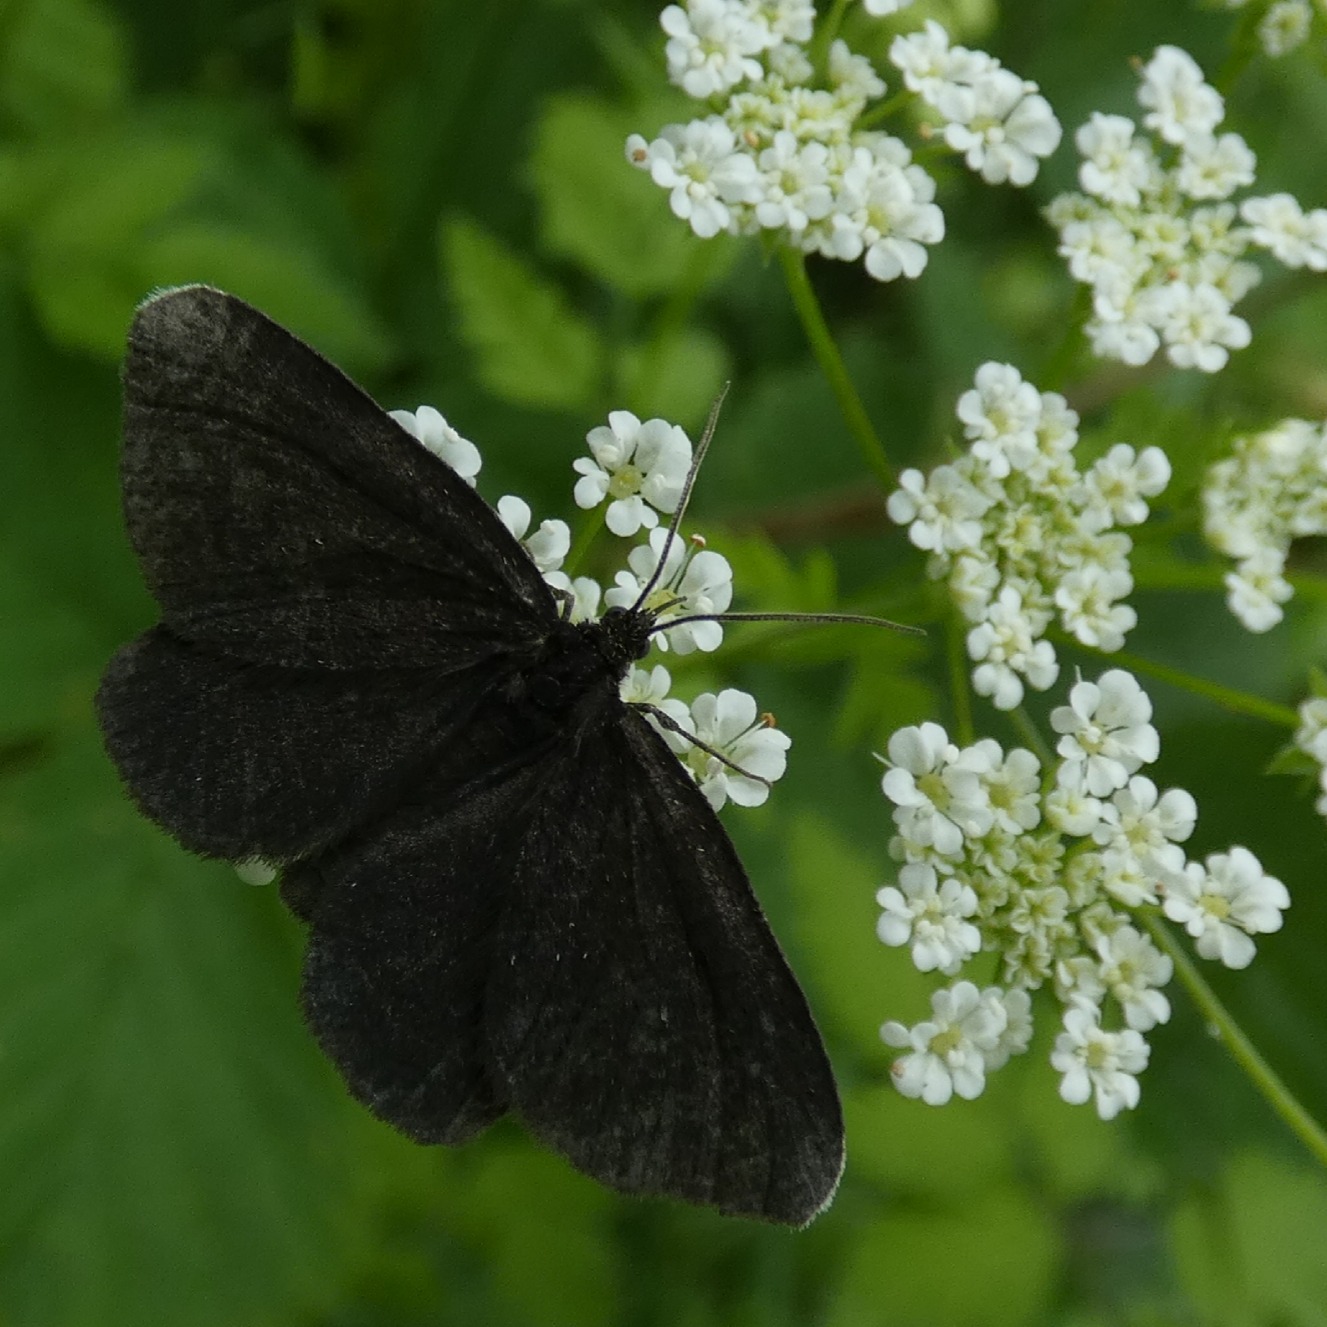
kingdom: Animalia
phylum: Arthropoda
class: Insecta
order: Lepidoptera
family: Geometridae
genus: Odezia
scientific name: Odezia atrata
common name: Sort måler
